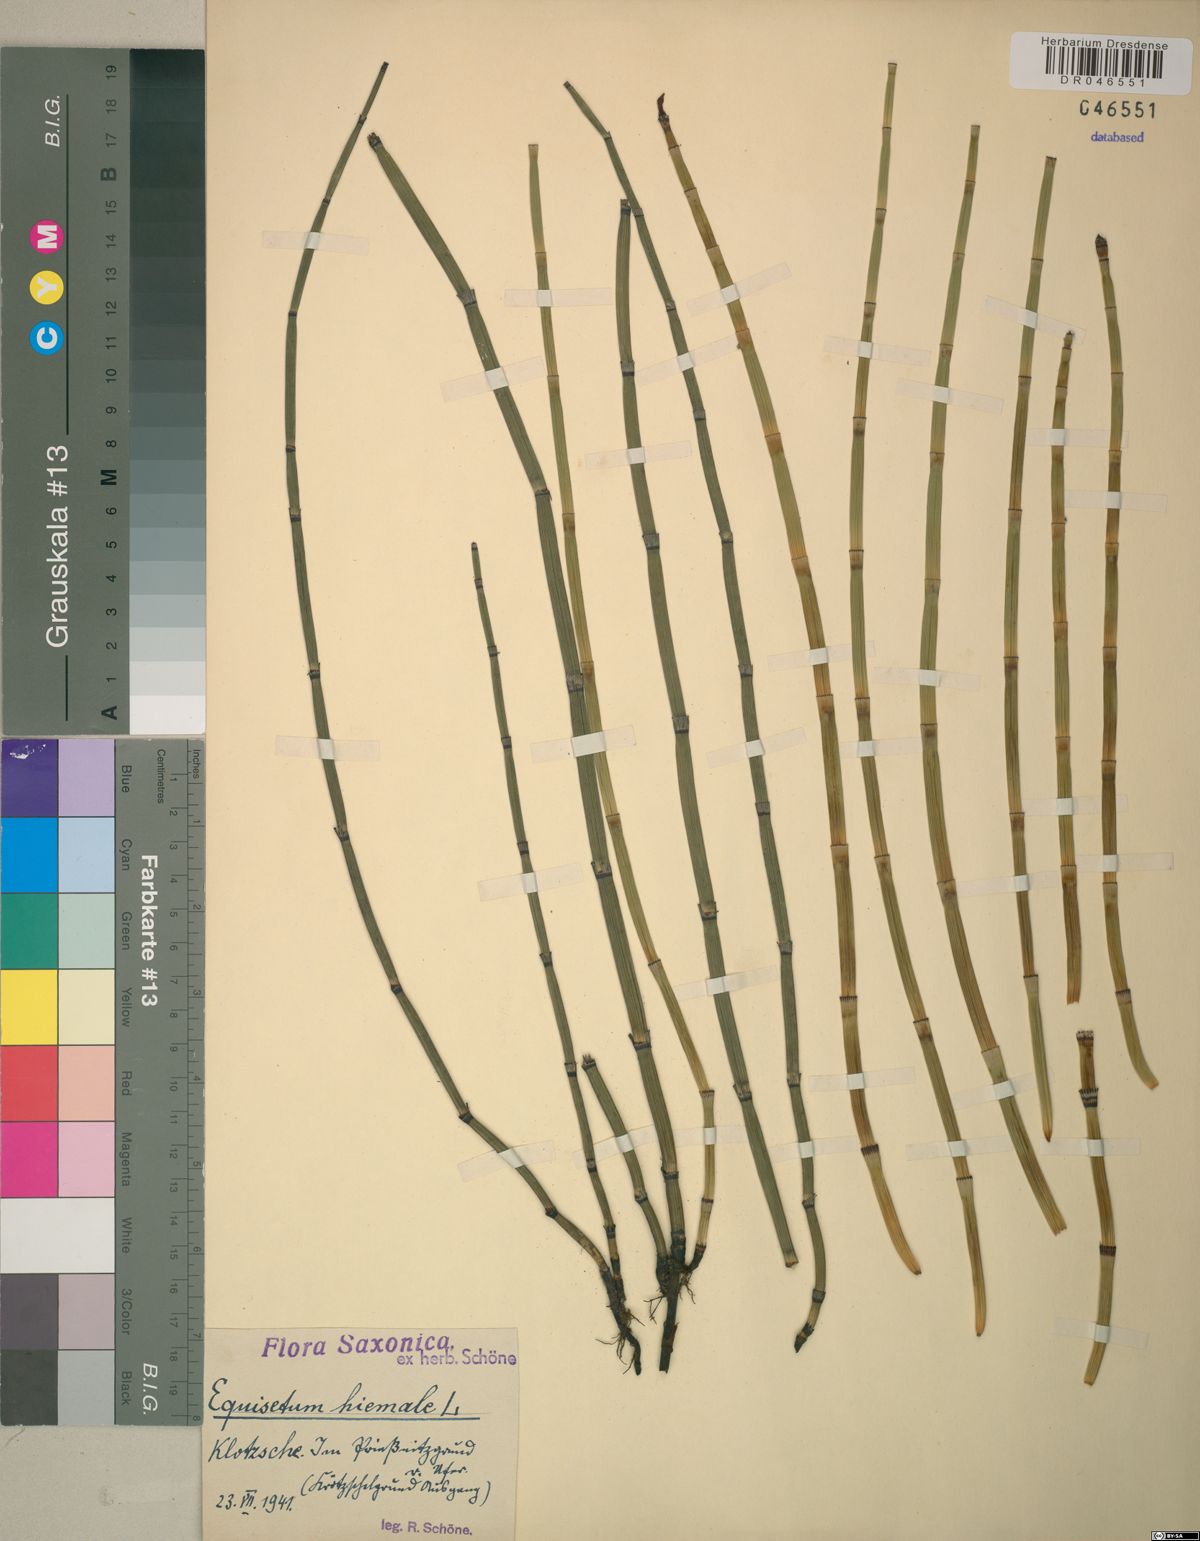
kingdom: Plantae
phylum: Tracheophyta
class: Polypodiopsida
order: Equisetales
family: Equisetaceae
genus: Equisetum
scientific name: Equisetum hyemale
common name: Rough horsetail
